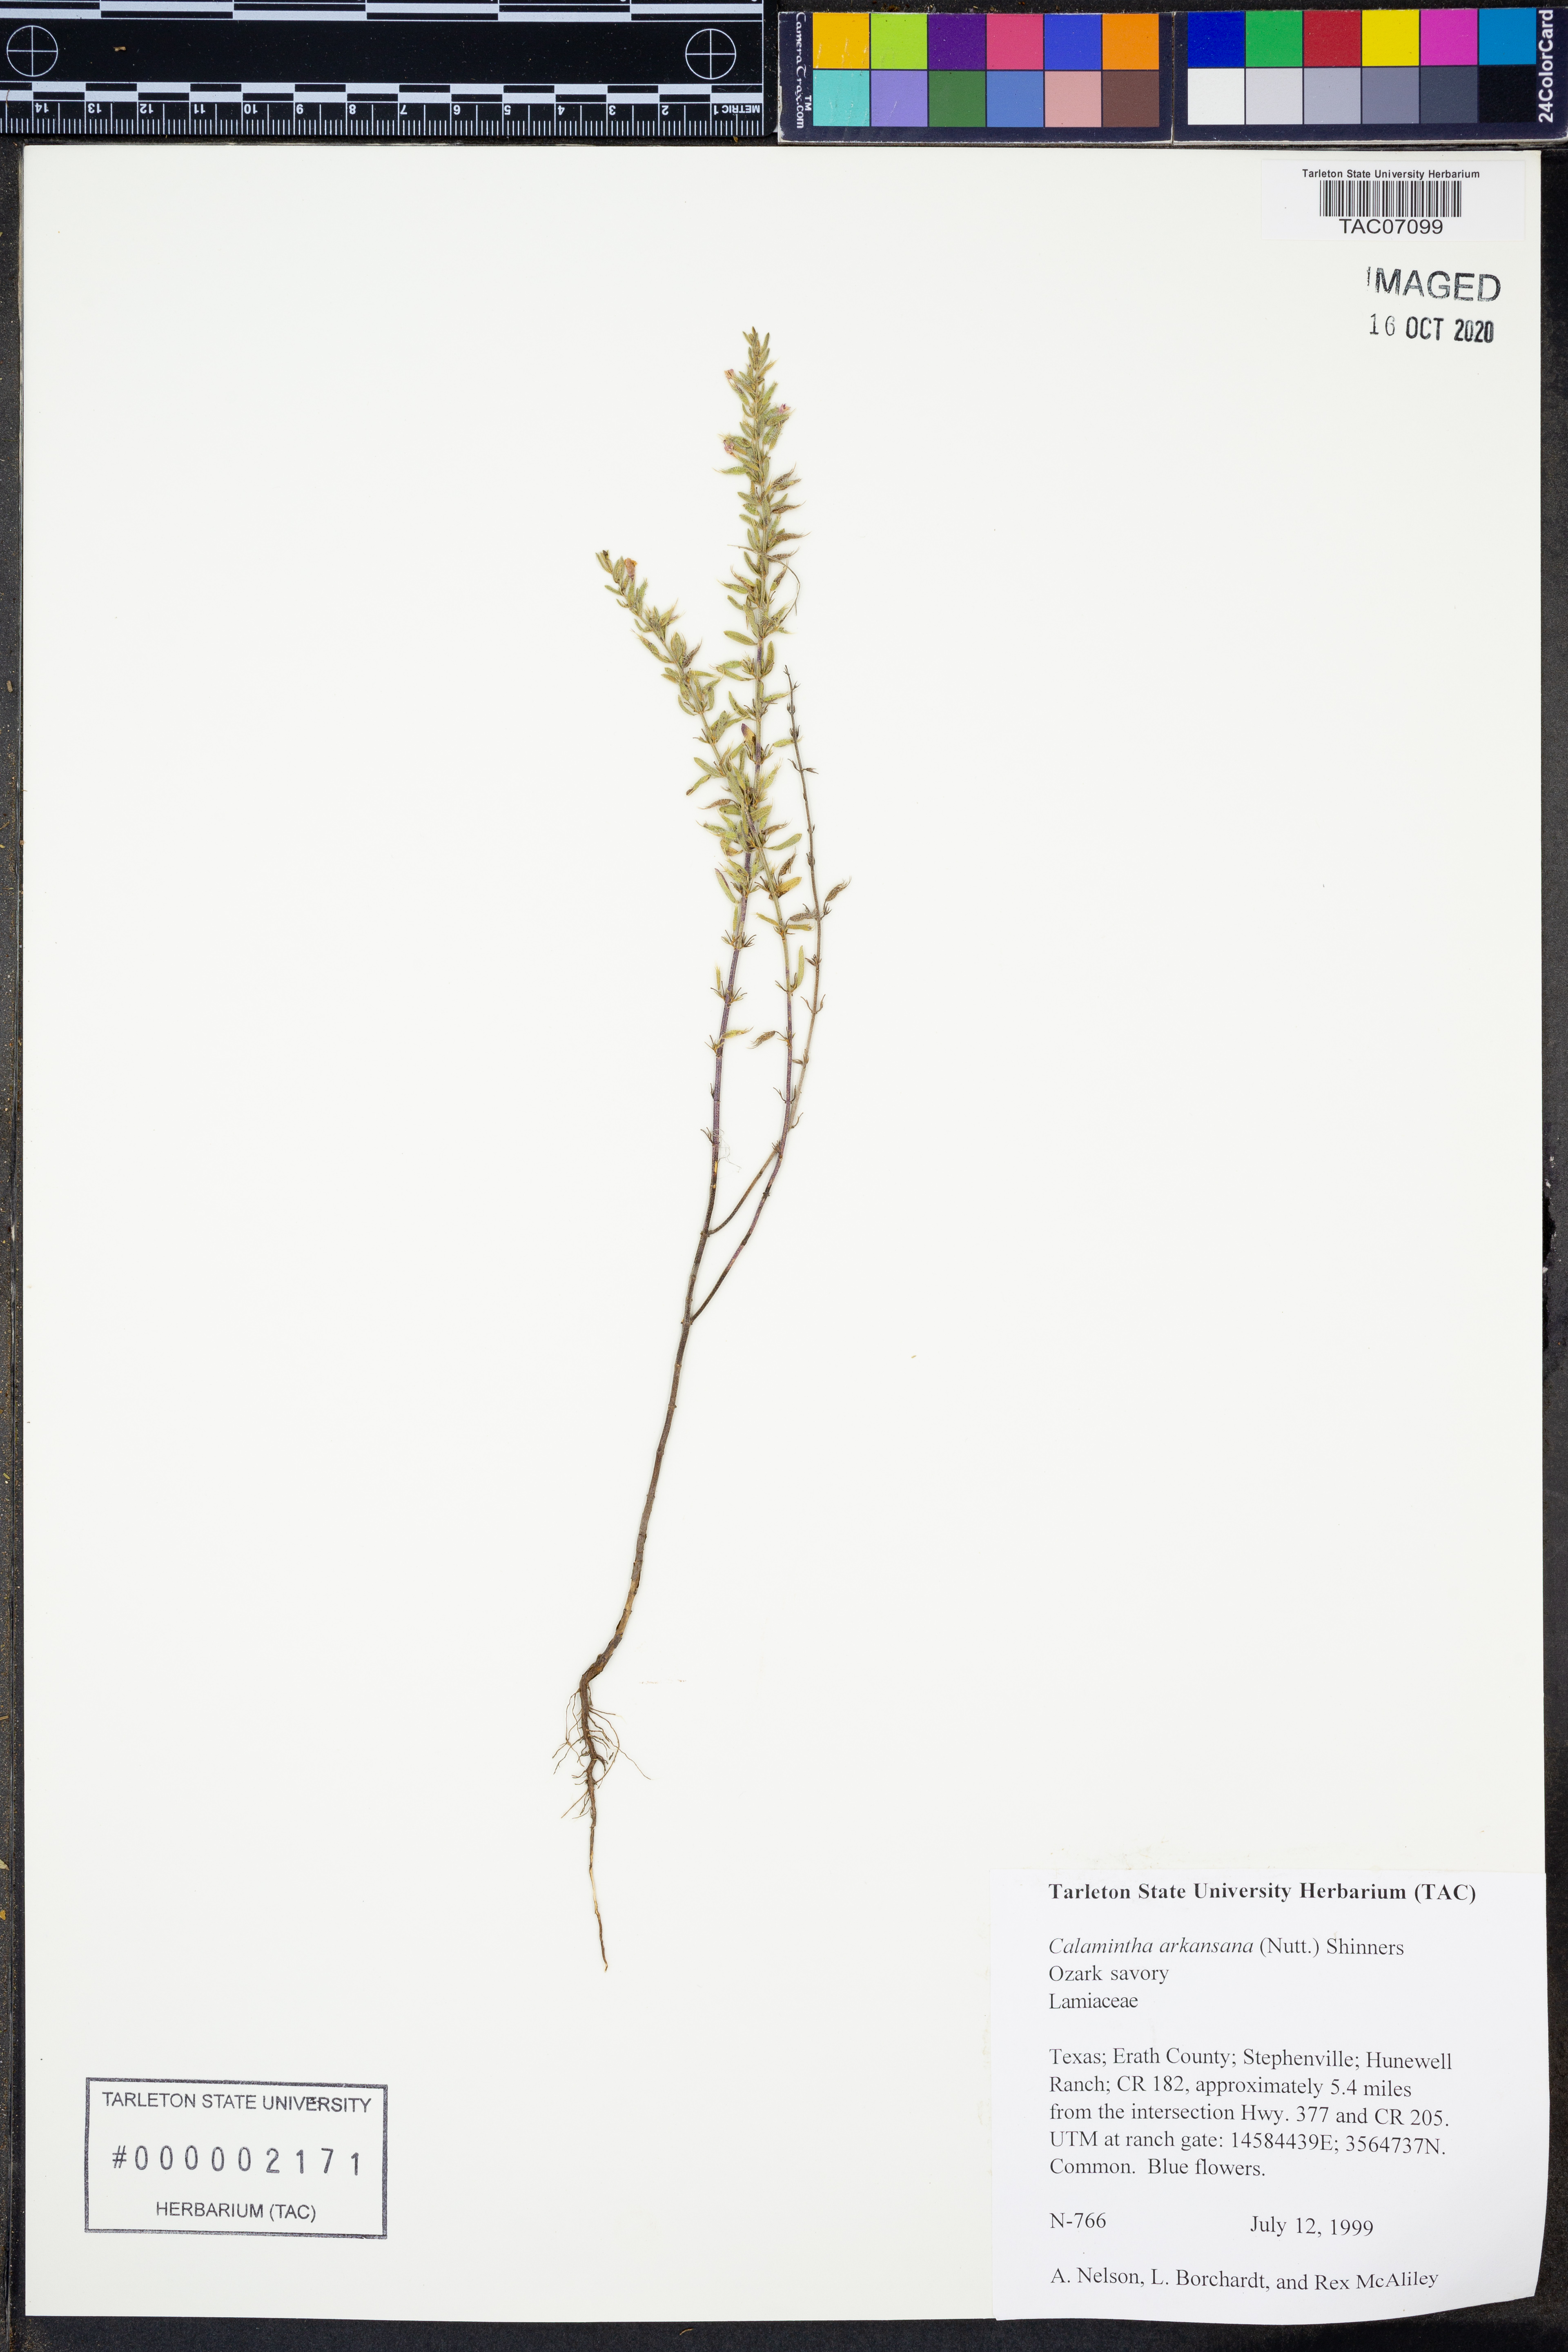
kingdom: Plantae
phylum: Tracheophyta
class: Magnoliopsida
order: Lamiales
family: Lamiaceae
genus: Clinopodium
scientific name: Clinopodium arkansanum
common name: Limestone calamint
